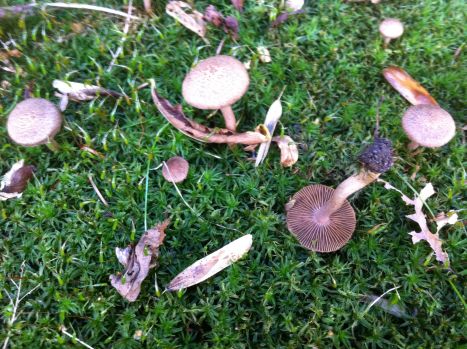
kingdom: Fungi
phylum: Basidiomycota
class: Agaricomycetes
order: Agaricales
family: Inocybaceae
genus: Inocybe
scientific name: Inocybe griseolilacina
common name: lillagrå trævlhat
